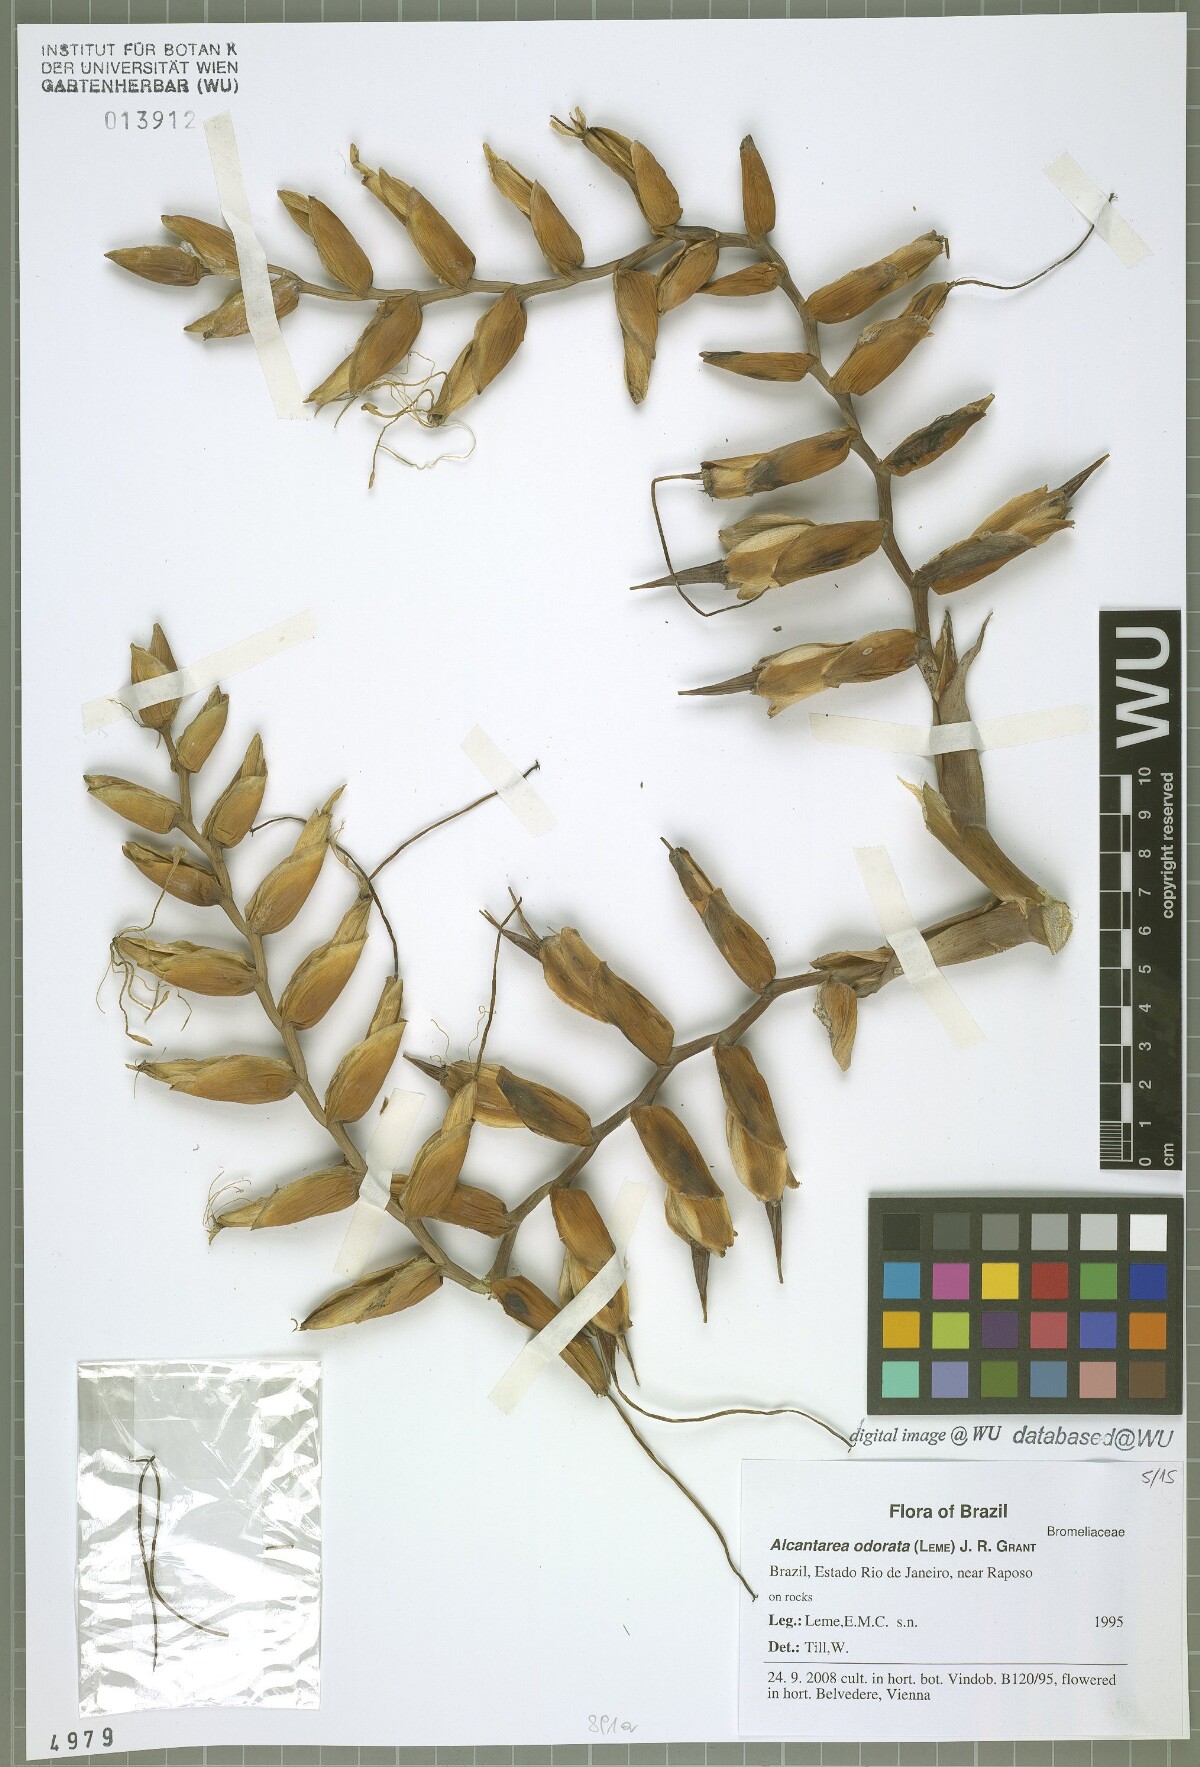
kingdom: Plantae
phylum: Tracheophyta
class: Liliopsida
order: Poales
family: Bromeliaceae
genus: Alcantarea
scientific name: Alcantarea odorata
